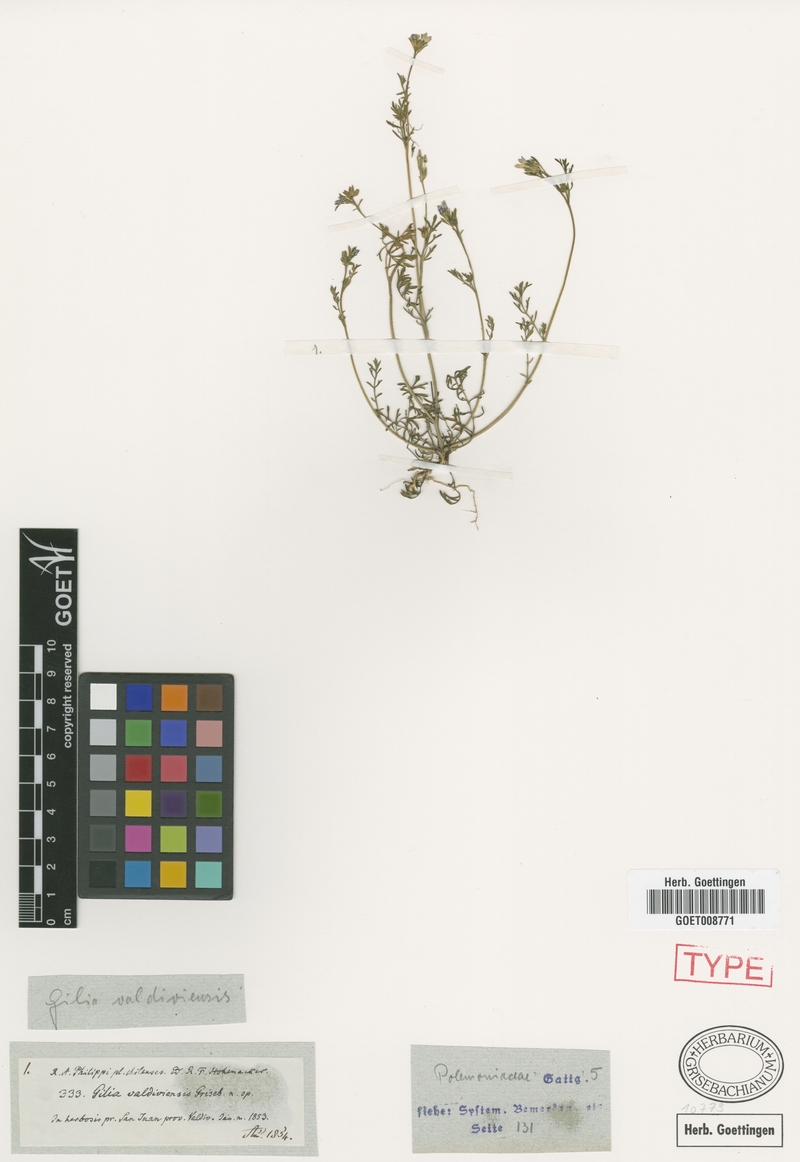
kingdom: Plantae
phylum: Tracheophyta
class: Magnoliopsida
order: Ericales
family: Polemoniaceae
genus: Gilia
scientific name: Gilia valdiviensis
